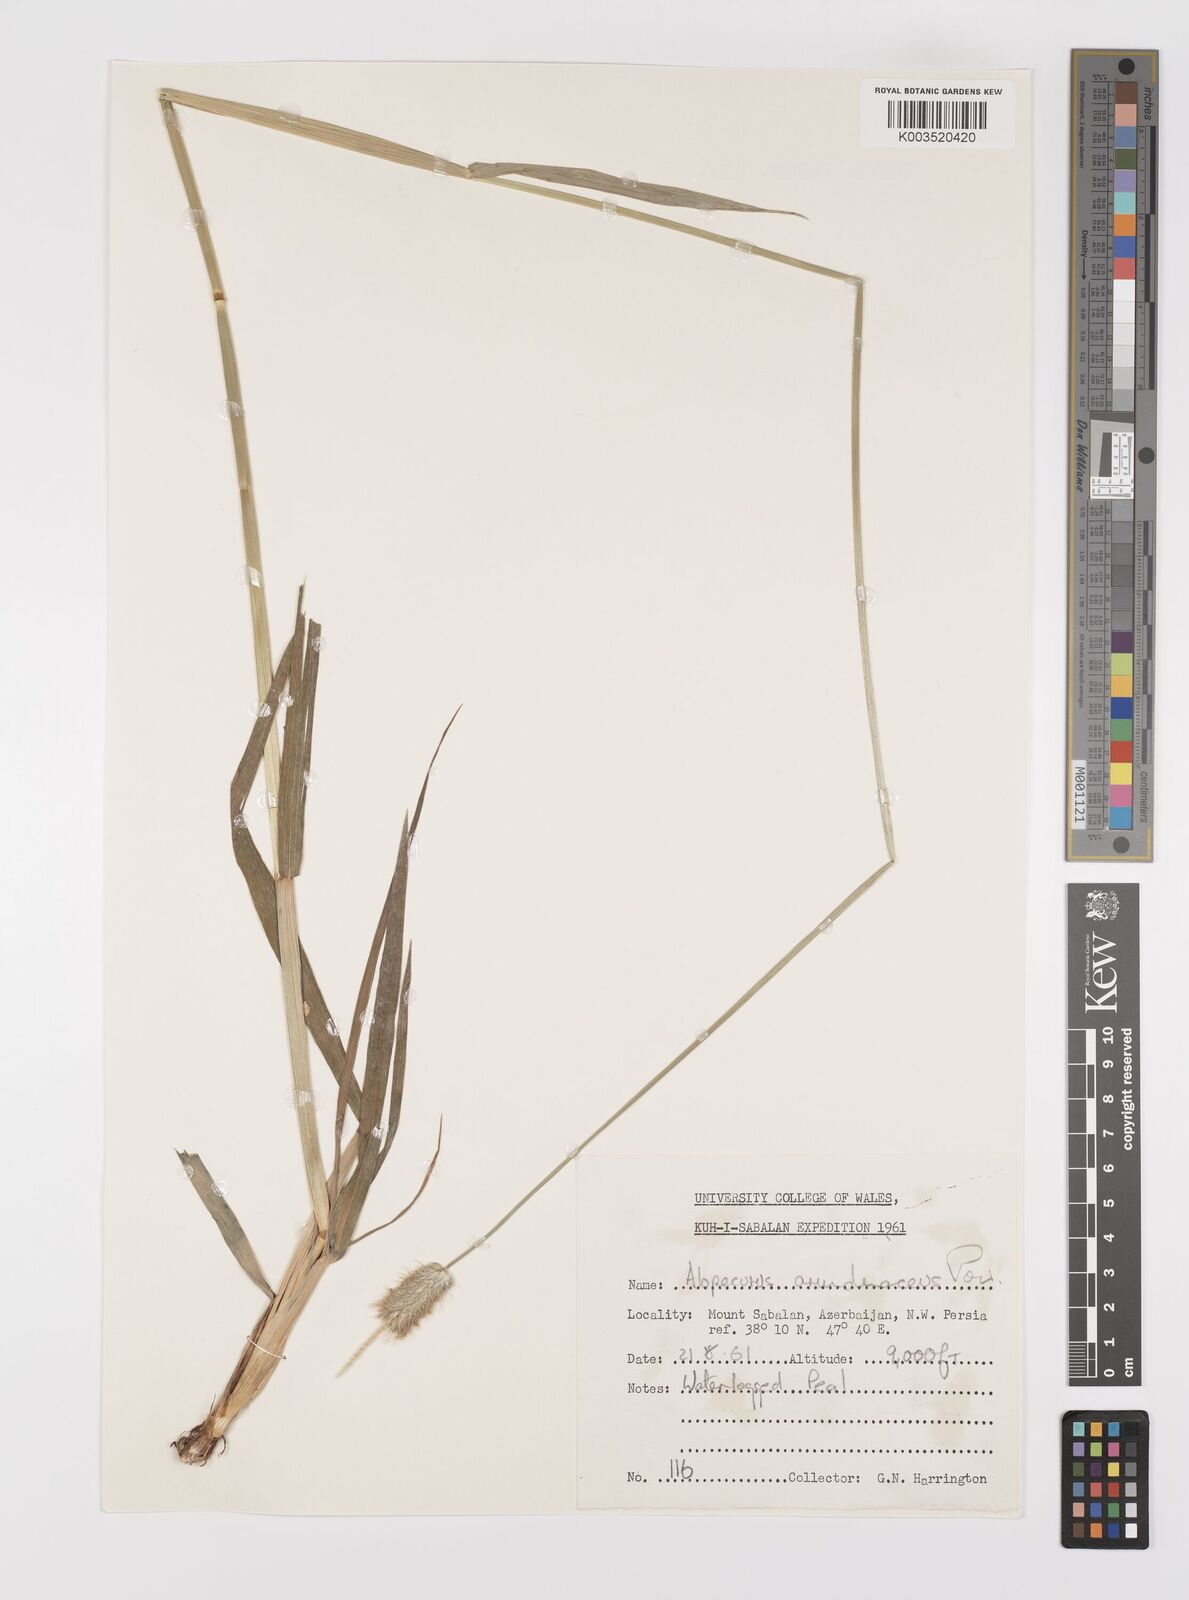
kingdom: Plantae
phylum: Tracheophyta
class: Liliopsida
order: Poales
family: Poaceae
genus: Alopecurus
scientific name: Alopecurus arundinaceus
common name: Creeping meadow foxtail
